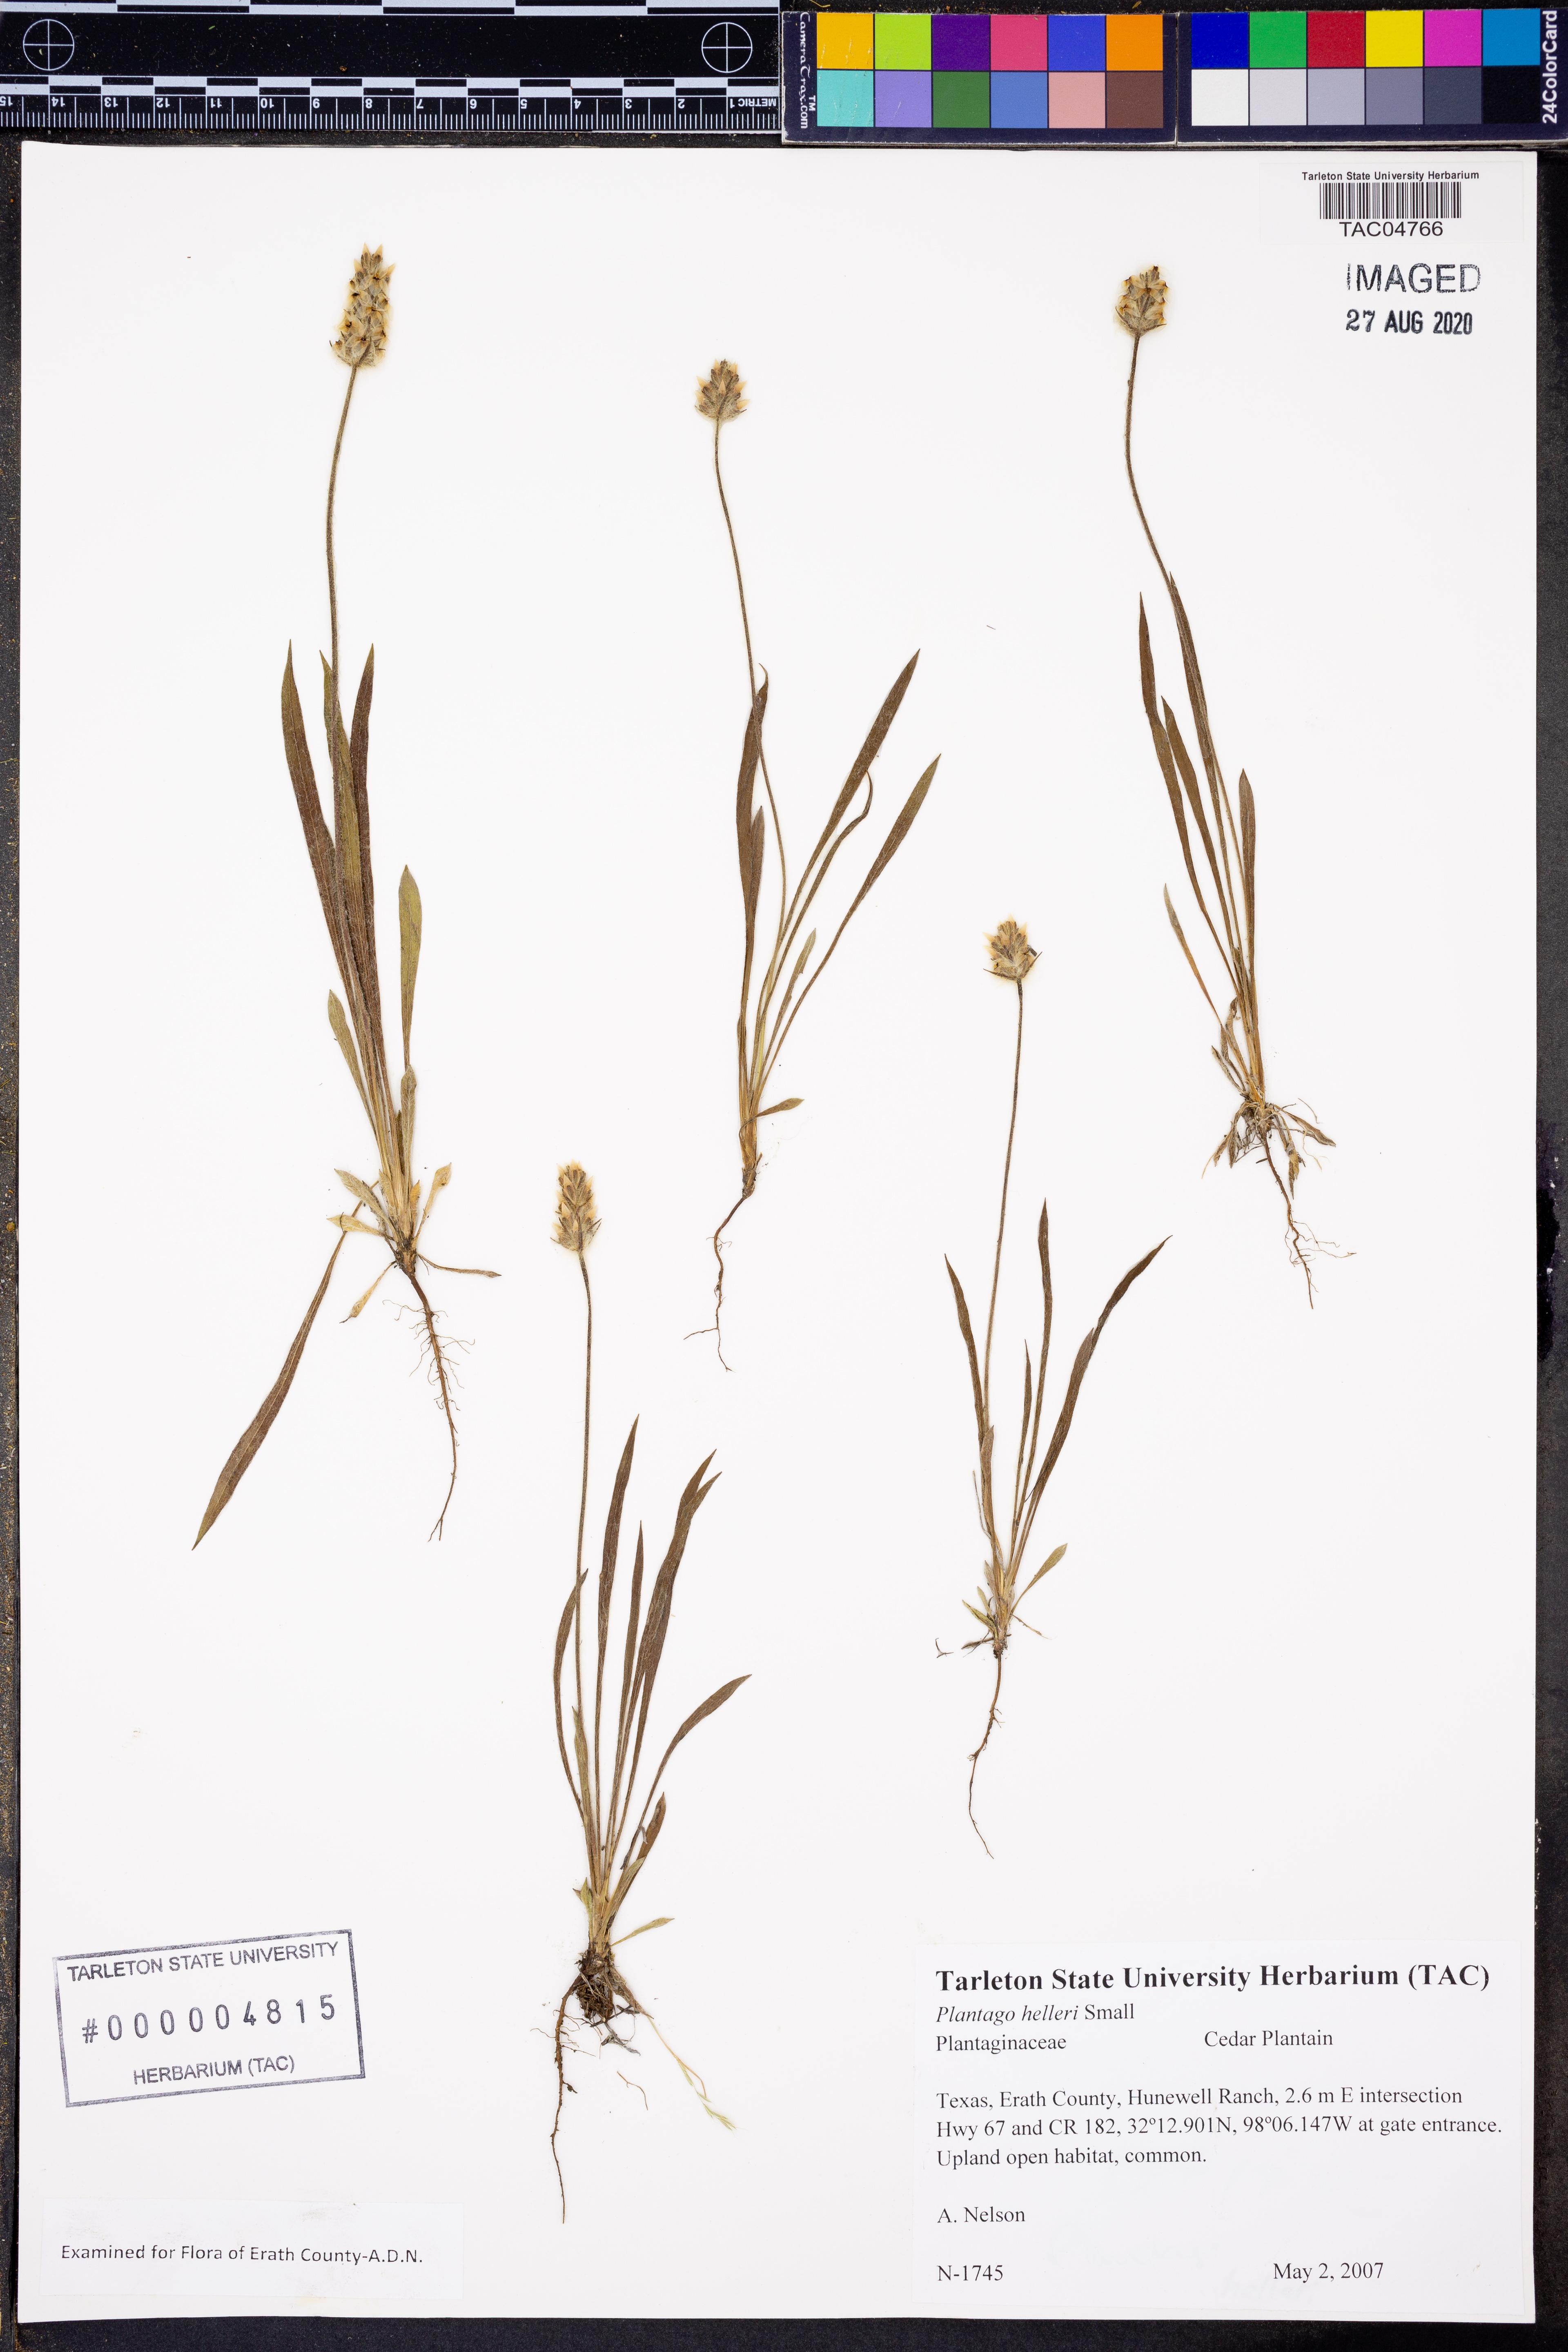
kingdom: Plantae
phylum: Tracheophyta
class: Magnoliopsida
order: Lamiales
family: Plantaginaceae
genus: Plantago
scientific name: Plantago helleri
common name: Heller's plantain
